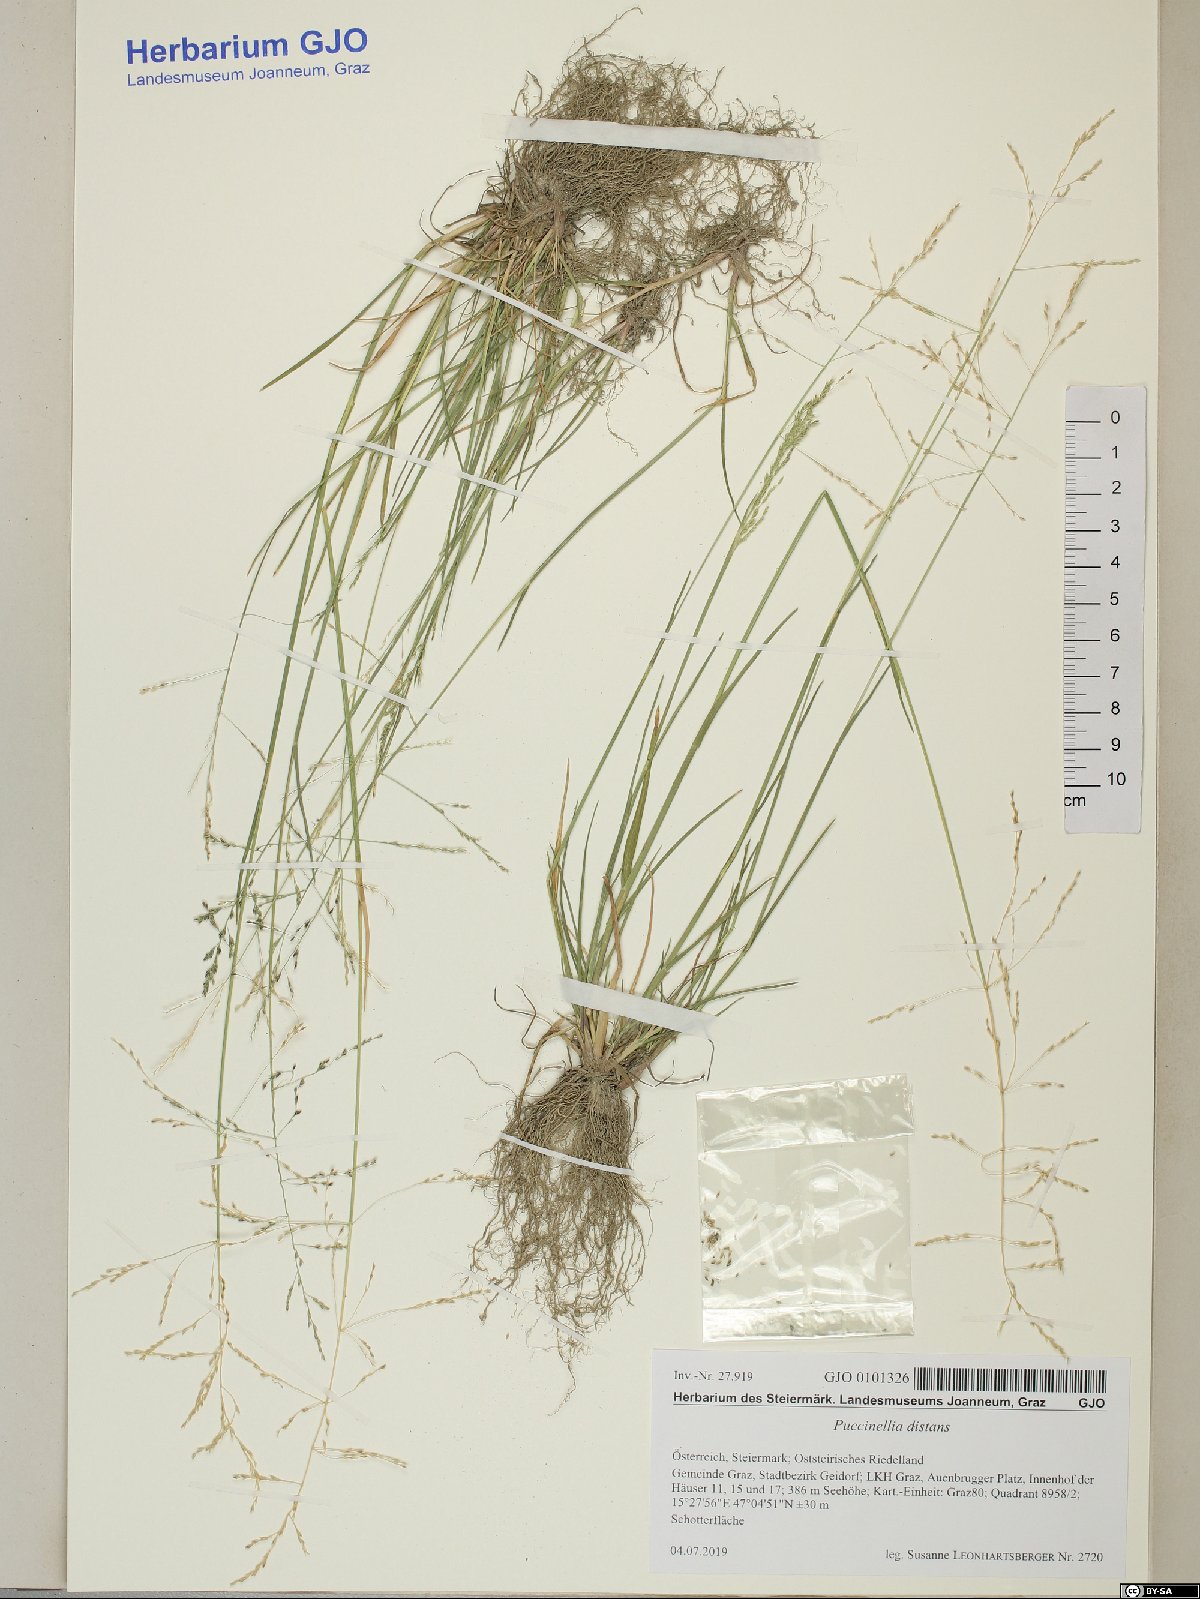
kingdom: Plantae
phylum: Tracheophyta
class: Liliopsida
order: Poales
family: Poaceae
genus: Puccinellia
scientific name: Puccinellia distans
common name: Weeping alkaligrass
